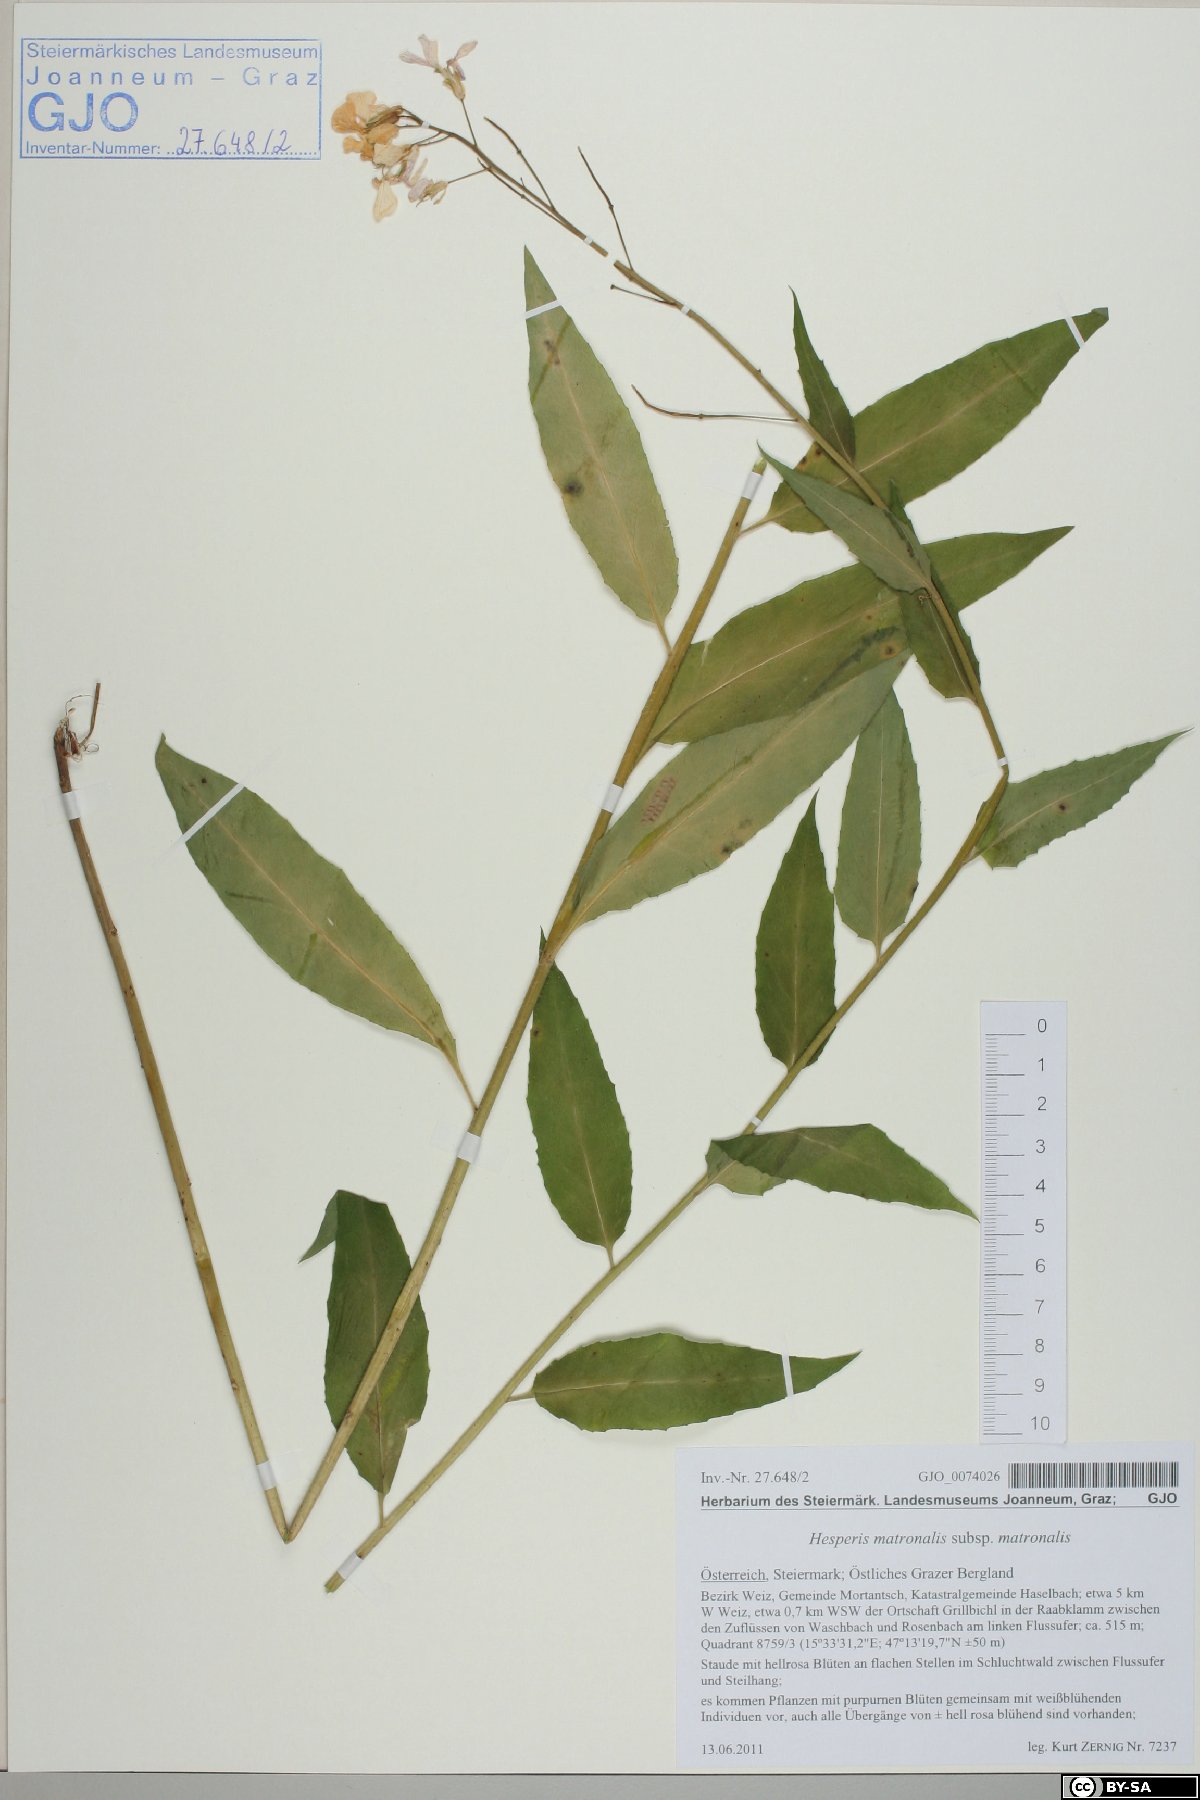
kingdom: Plantae
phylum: Tracheophyta
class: Magnoliopsida
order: Brassicales
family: Brassicaceae
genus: Hesperis
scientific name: Hesperis matronalis
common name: Dame's-violet
